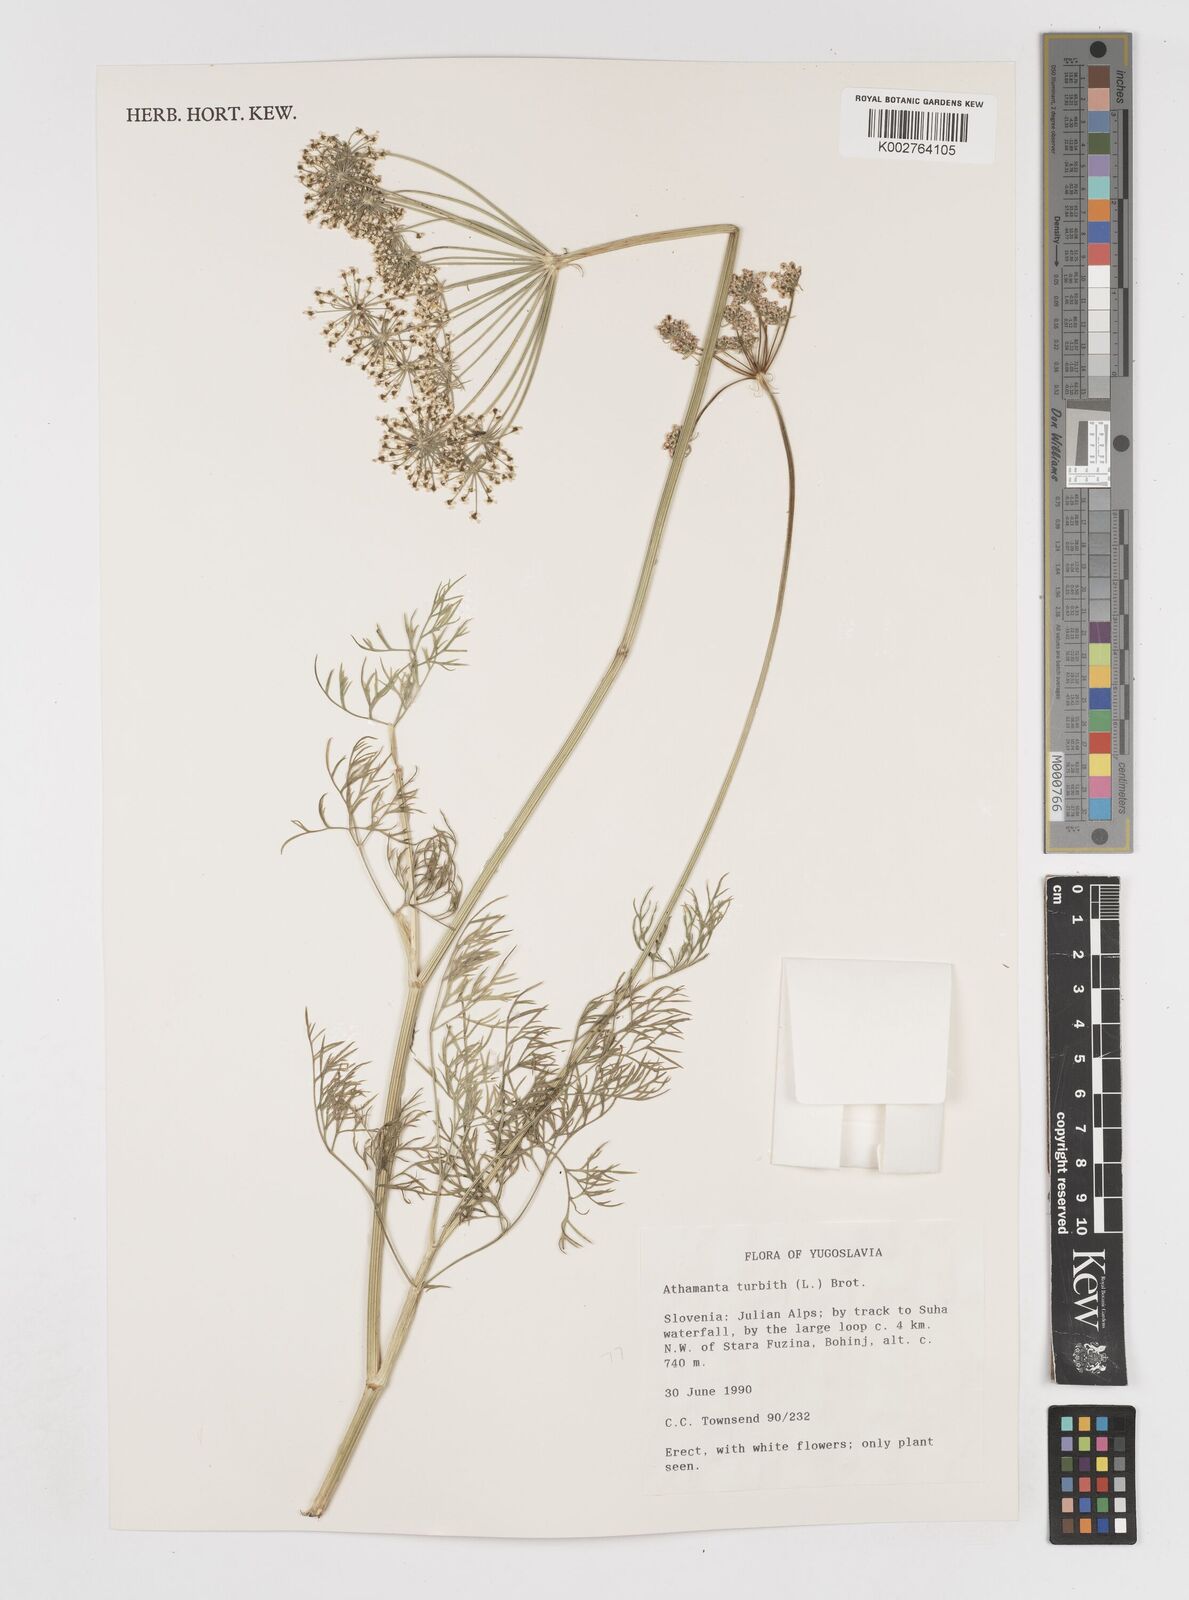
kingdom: Plantae
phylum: Tracheophyta
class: Magnoliopsida
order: Apiales
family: Apiaceae
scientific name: Apiaceae
